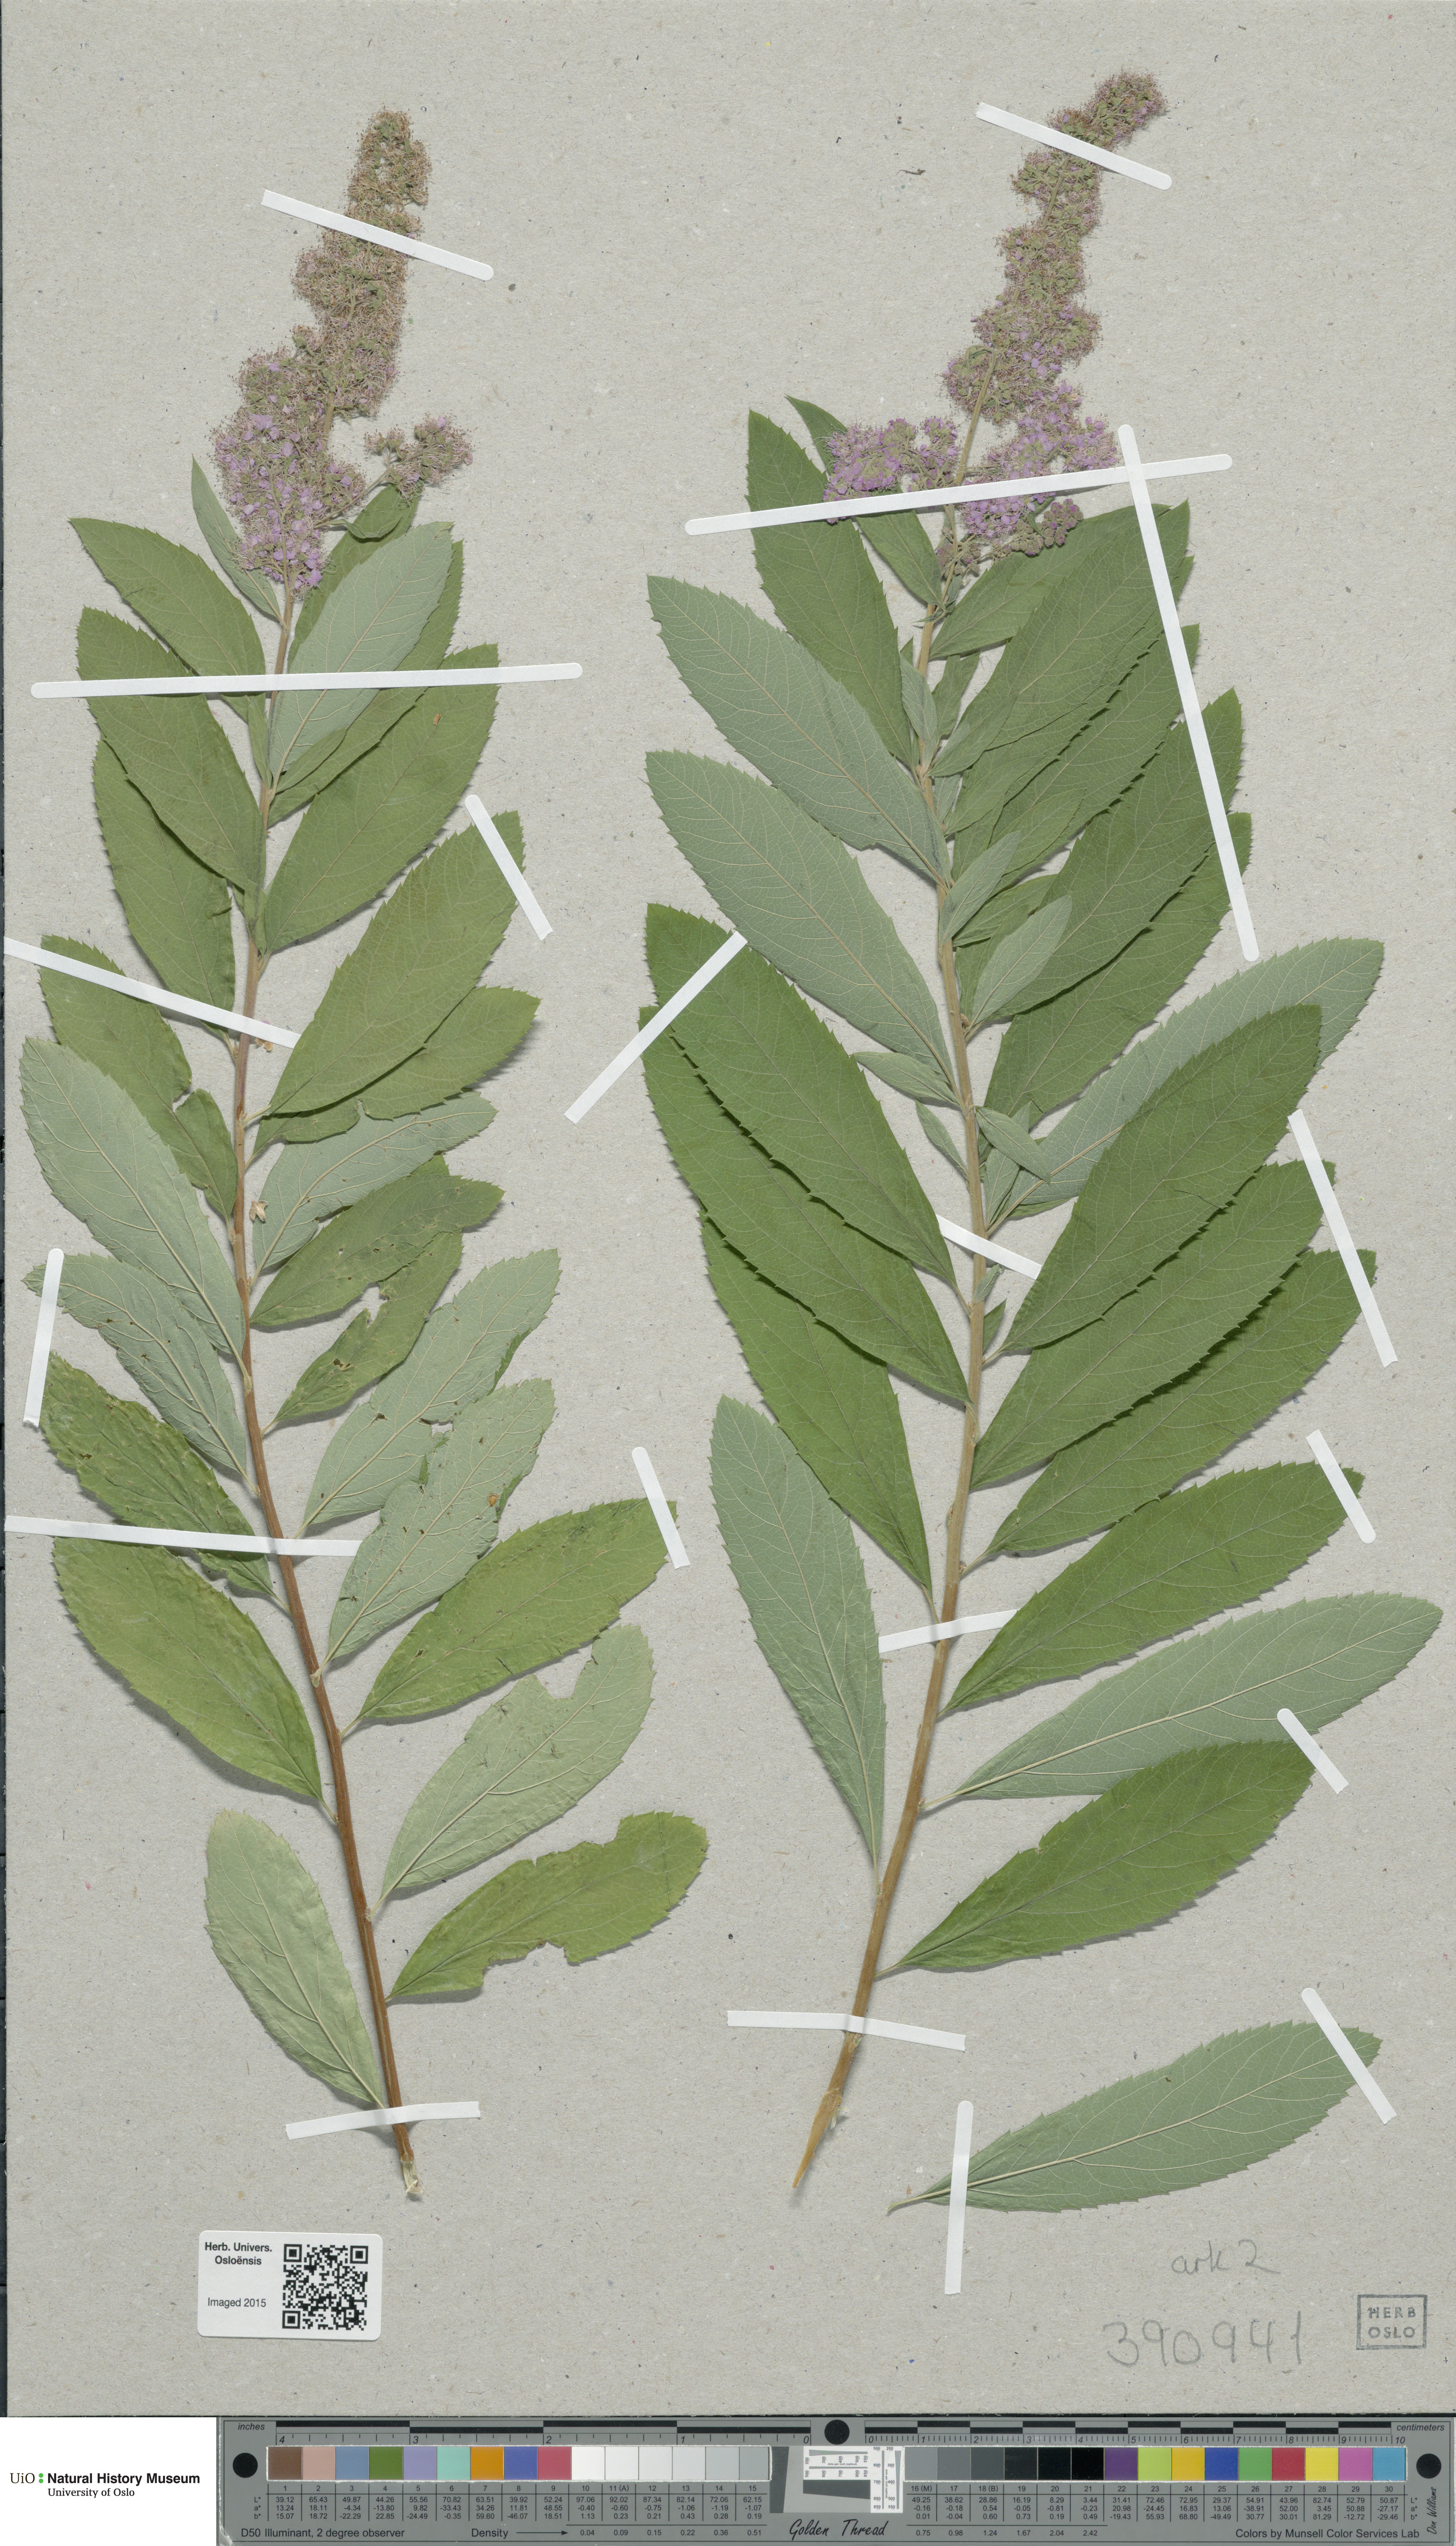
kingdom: Plantae
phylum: Tracheophyta
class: Magnoliopsida
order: Rosales
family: Rosaceae
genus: Spiraea
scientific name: Spiraea pseudosalicifolia
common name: Confused bridewort
